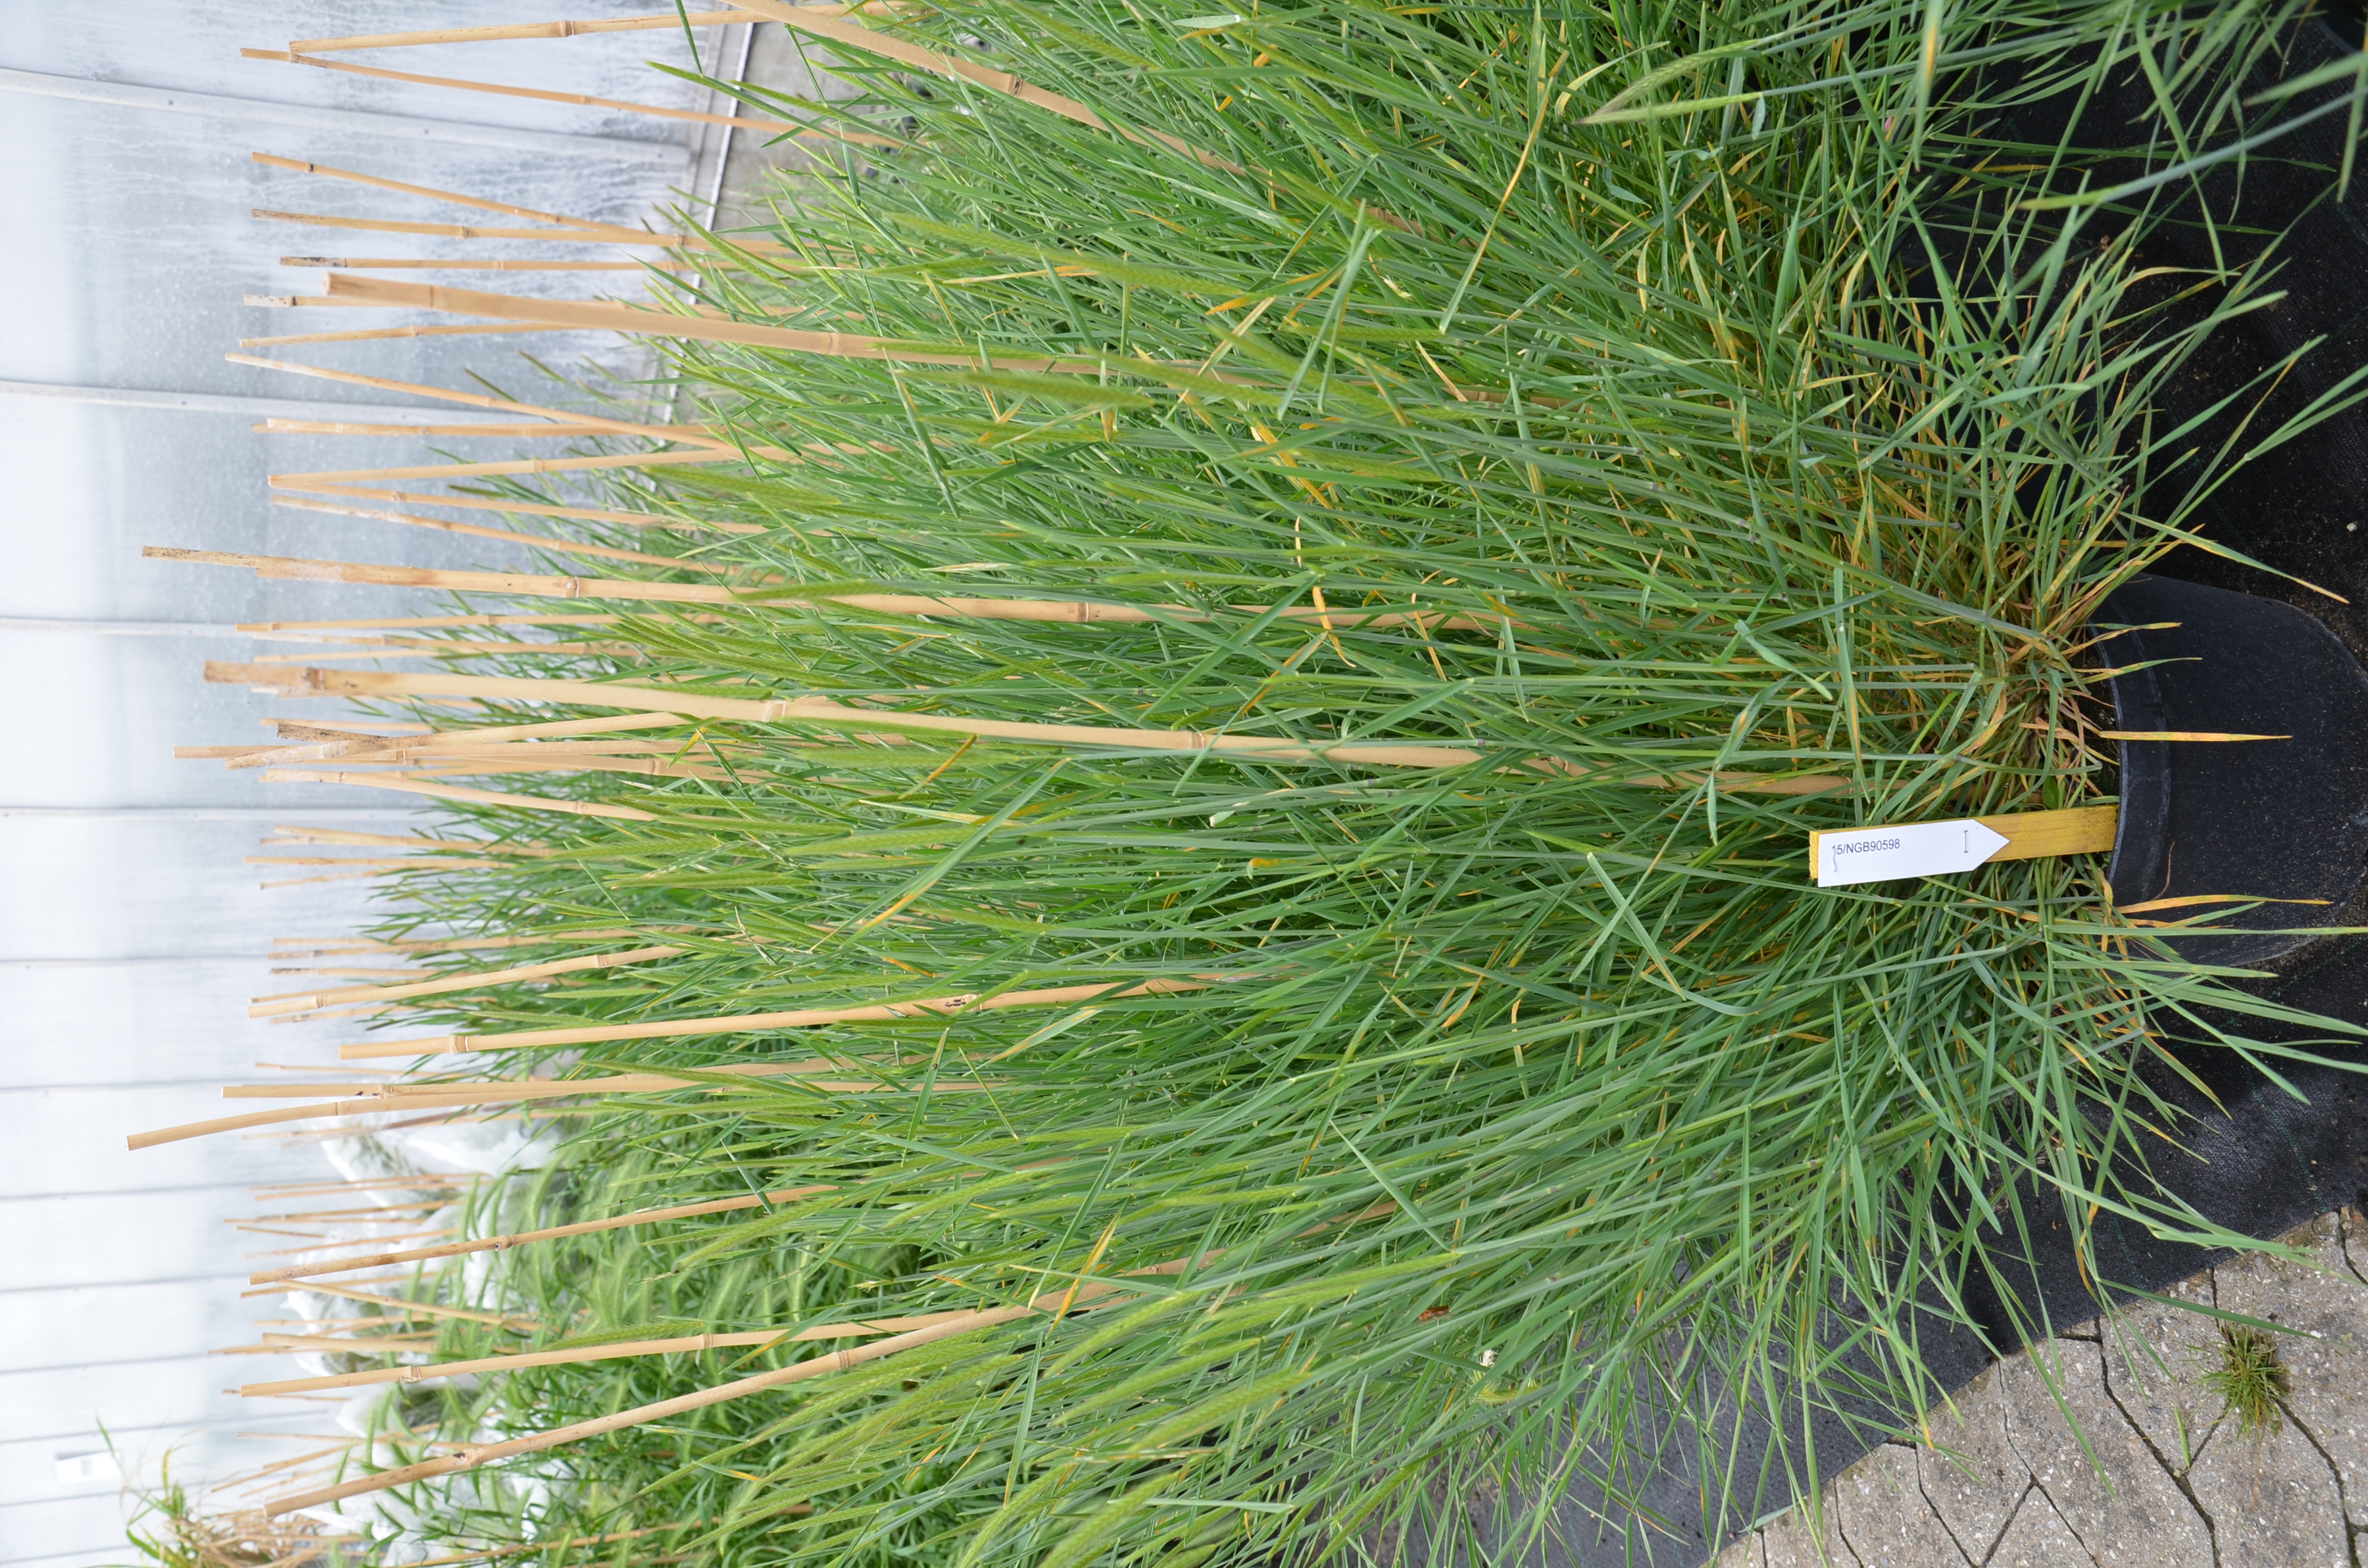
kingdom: Plantae
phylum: Tracheophyta
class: Liliopsida
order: Poales
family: Poaceae
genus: Hordeum
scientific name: Hordeum parodii
